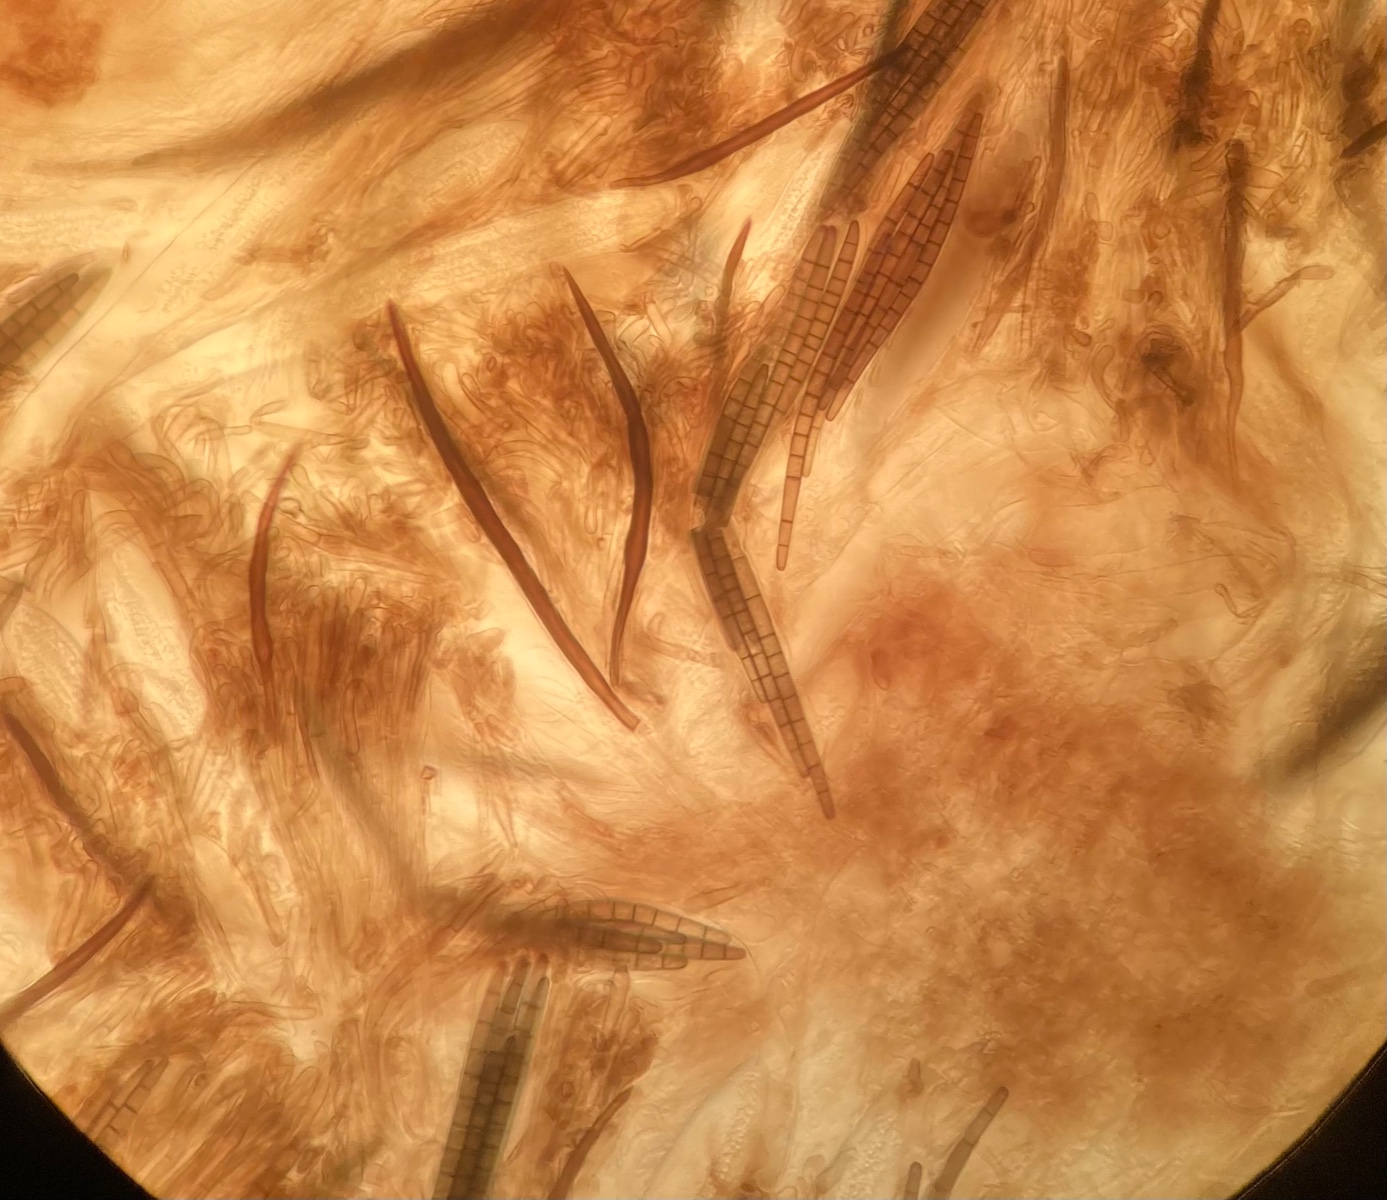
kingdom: Fungi
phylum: Ascomycota
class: Geoglossomycetes
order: Geoglossales
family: Geoglossaceae
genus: Trichoglossum
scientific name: Trichoglossum hirsutum
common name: håret jordtunge
